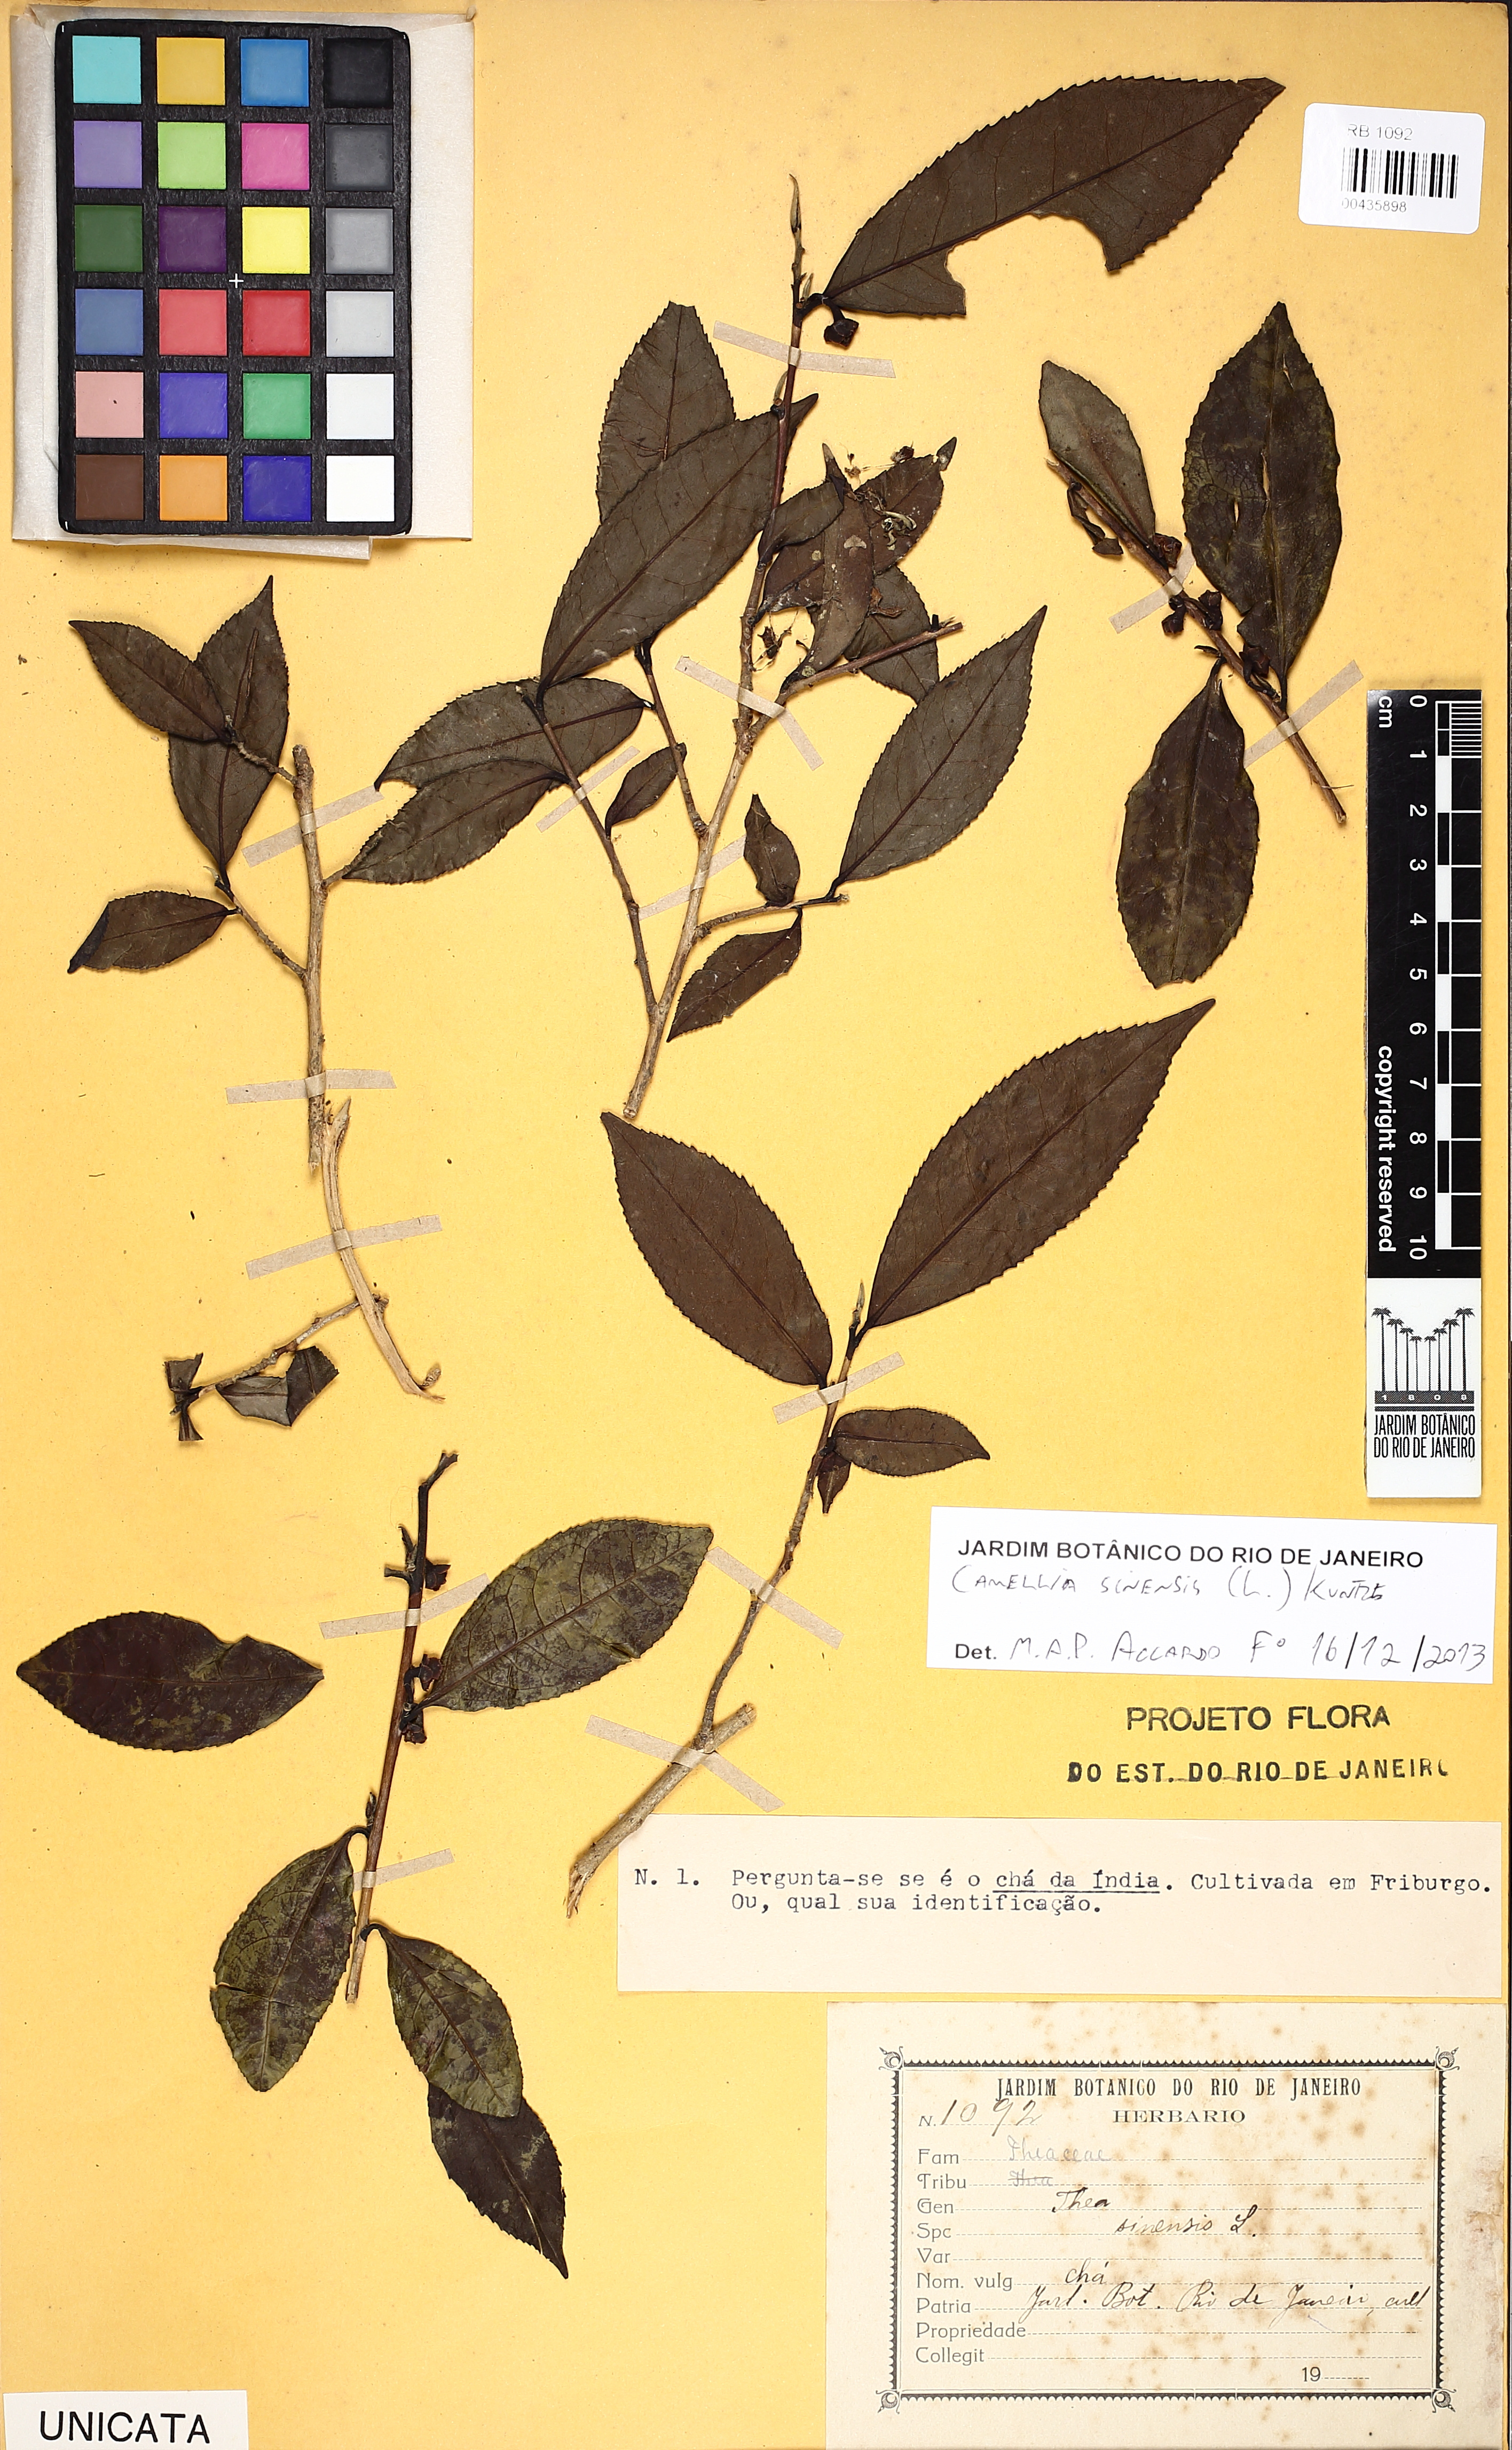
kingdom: Plantae
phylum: Tracheophyta
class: Magnoliopsida
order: Ericales
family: Theaceae
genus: Camellia
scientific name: Camellia sinensis
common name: Tea
